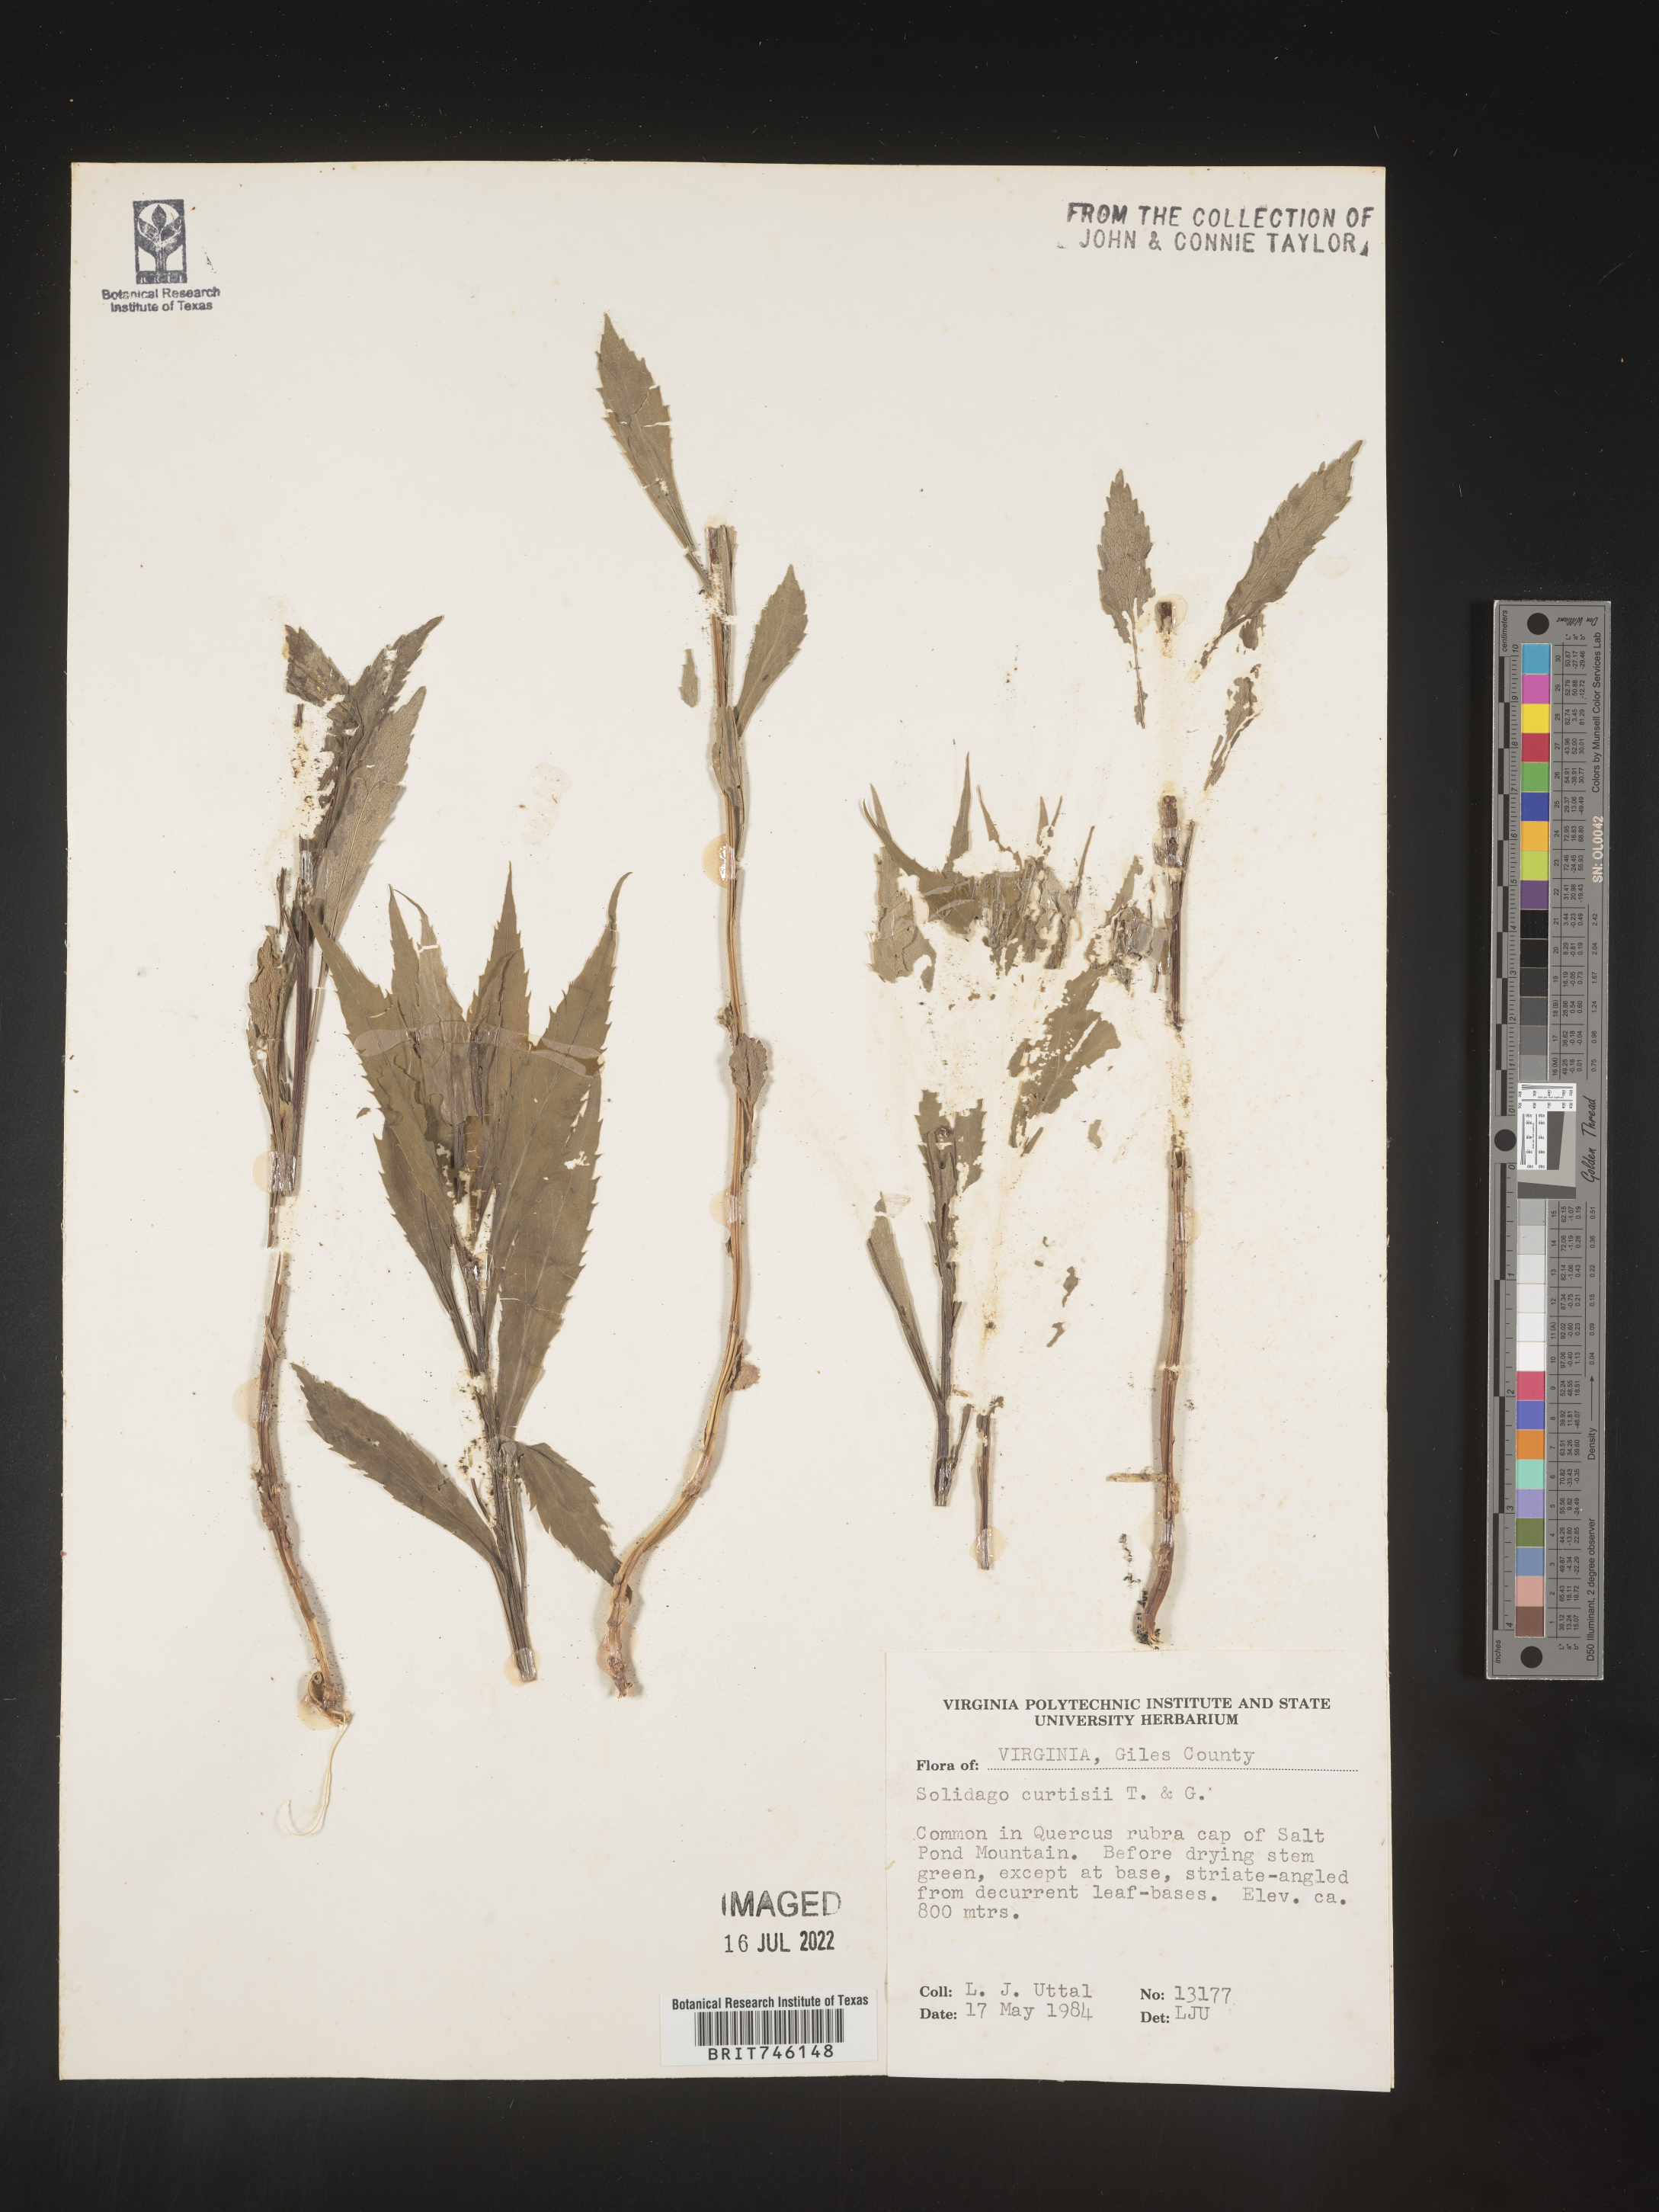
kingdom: Plantae
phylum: Tracheophyta
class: Magnoliopsida
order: Asterales
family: Asteraceae
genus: Solidago
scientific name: Solidago curtisii
